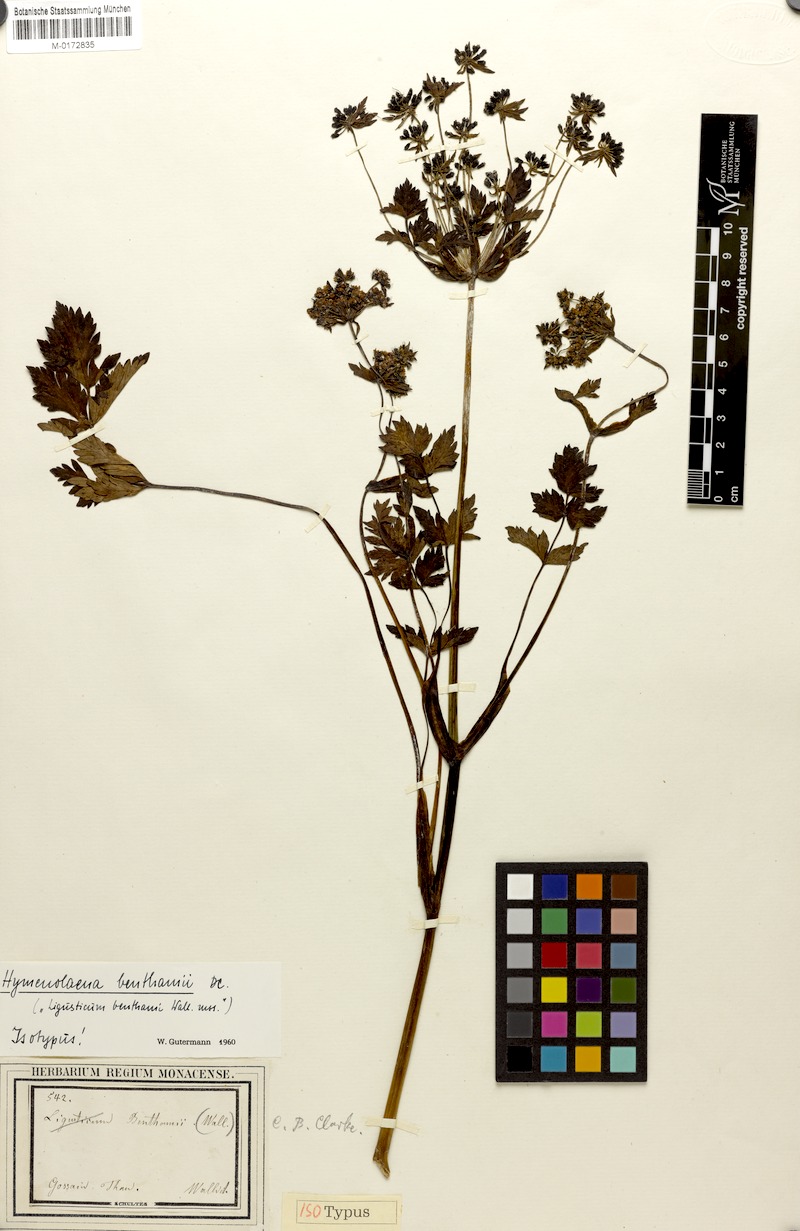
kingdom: Plantae
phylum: Tracheophyta
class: Magnoliopsida
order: Apiales
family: Apiaceae
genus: Hymenidium
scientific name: Hymenidium benthamii
